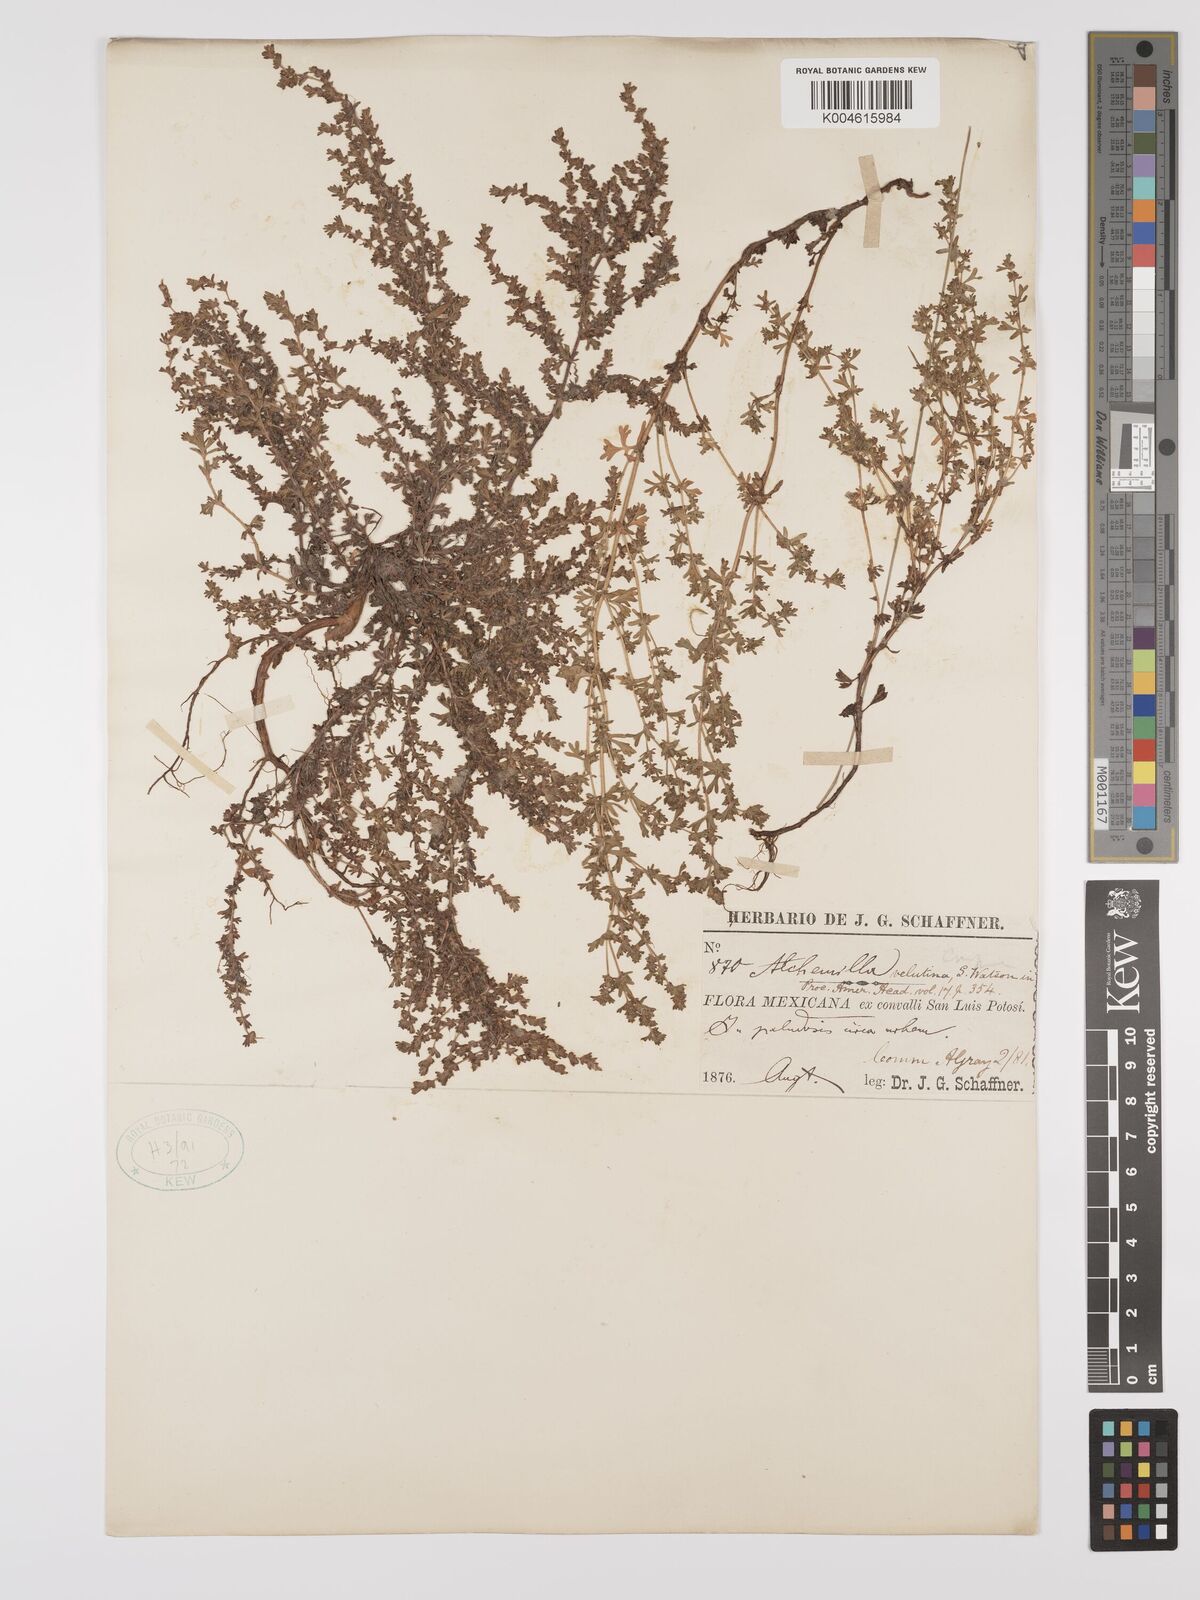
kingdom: Plantae
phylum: Tracheophyta
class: Magnoliopsida
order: Rosales
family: Rosaceae
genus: Lachemilla
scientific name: Lachemilla velutina
